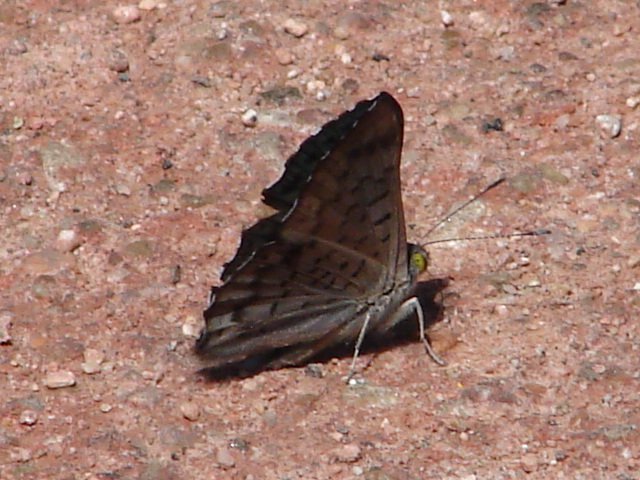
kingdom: Animalia
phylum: Arthropoda
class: Insecta
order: Lepidoptera
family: Riodinidae
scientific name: Riodinidae
